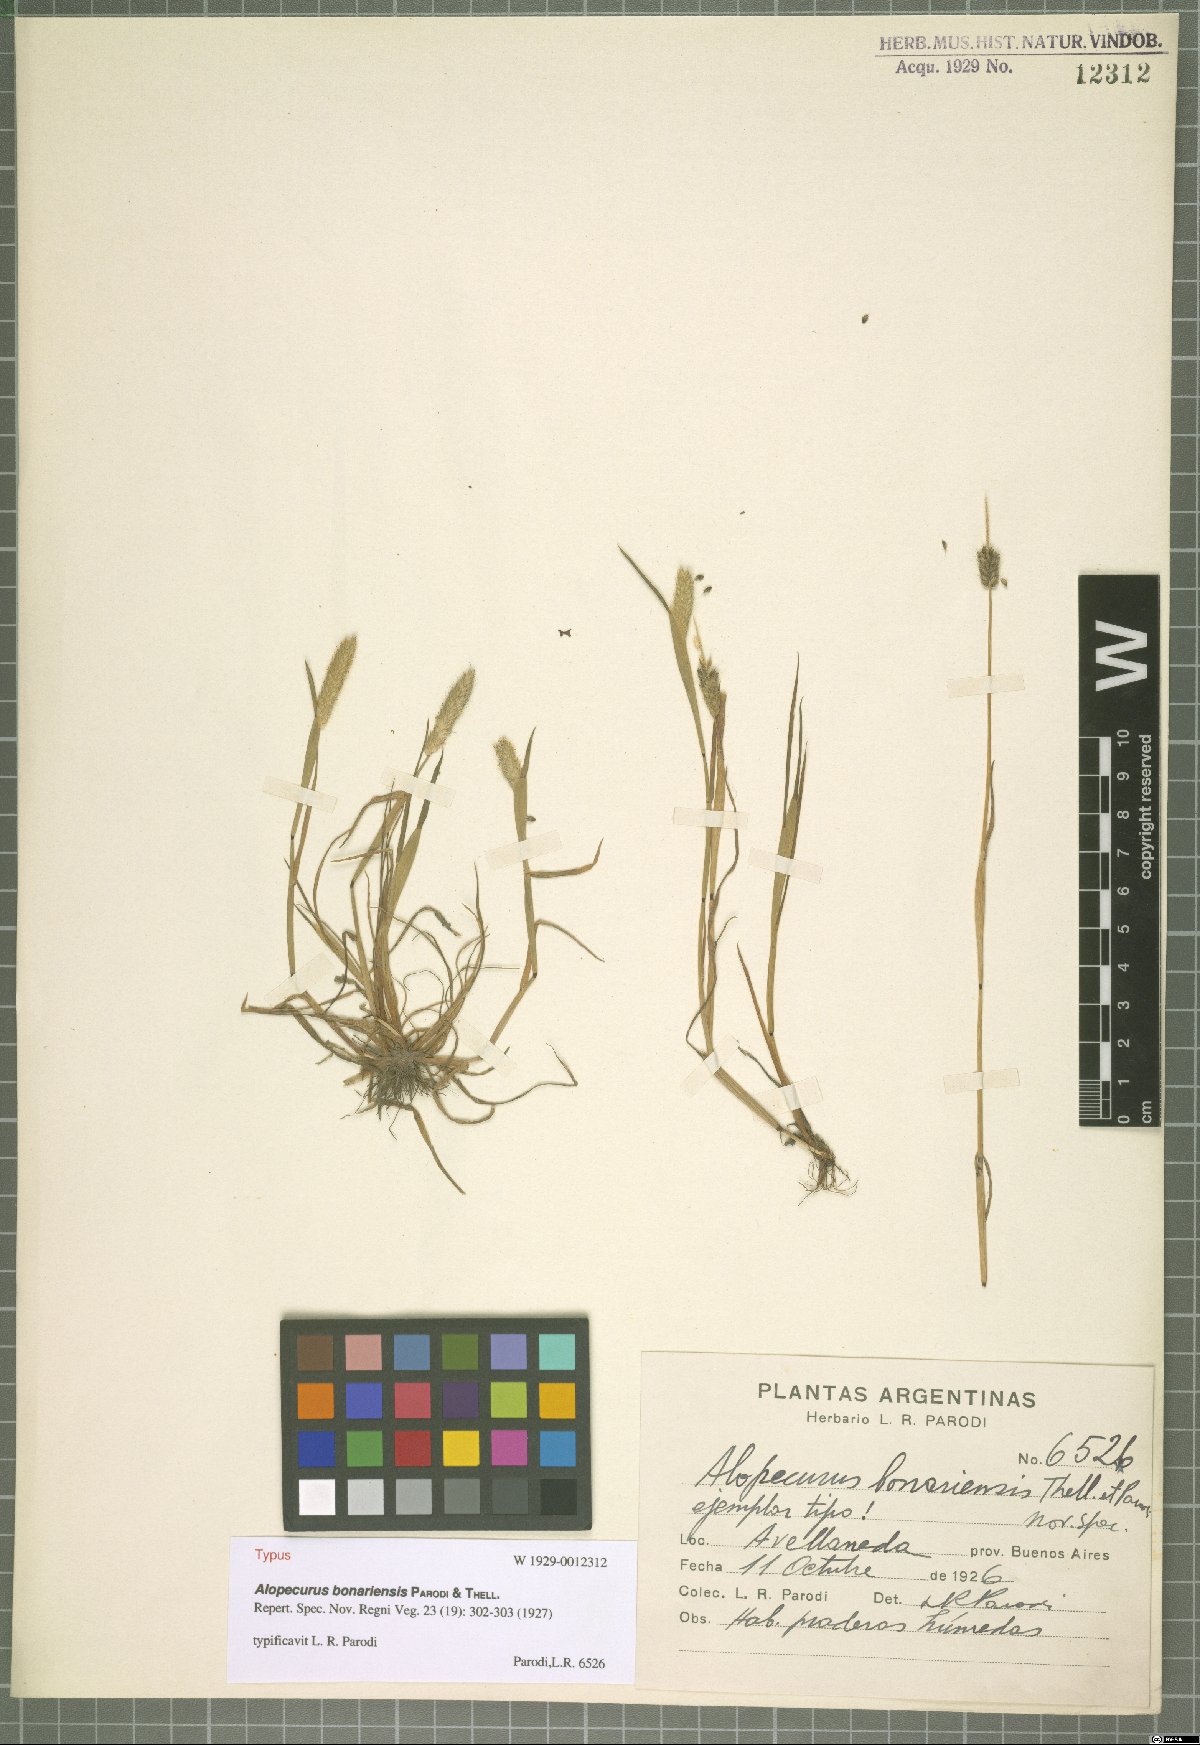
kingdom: Plantae
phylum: Tracheophyta
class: Liliopsida
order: Poales
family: Poaceae
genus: Alopecurus
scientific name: Alopecurus bonariensis
